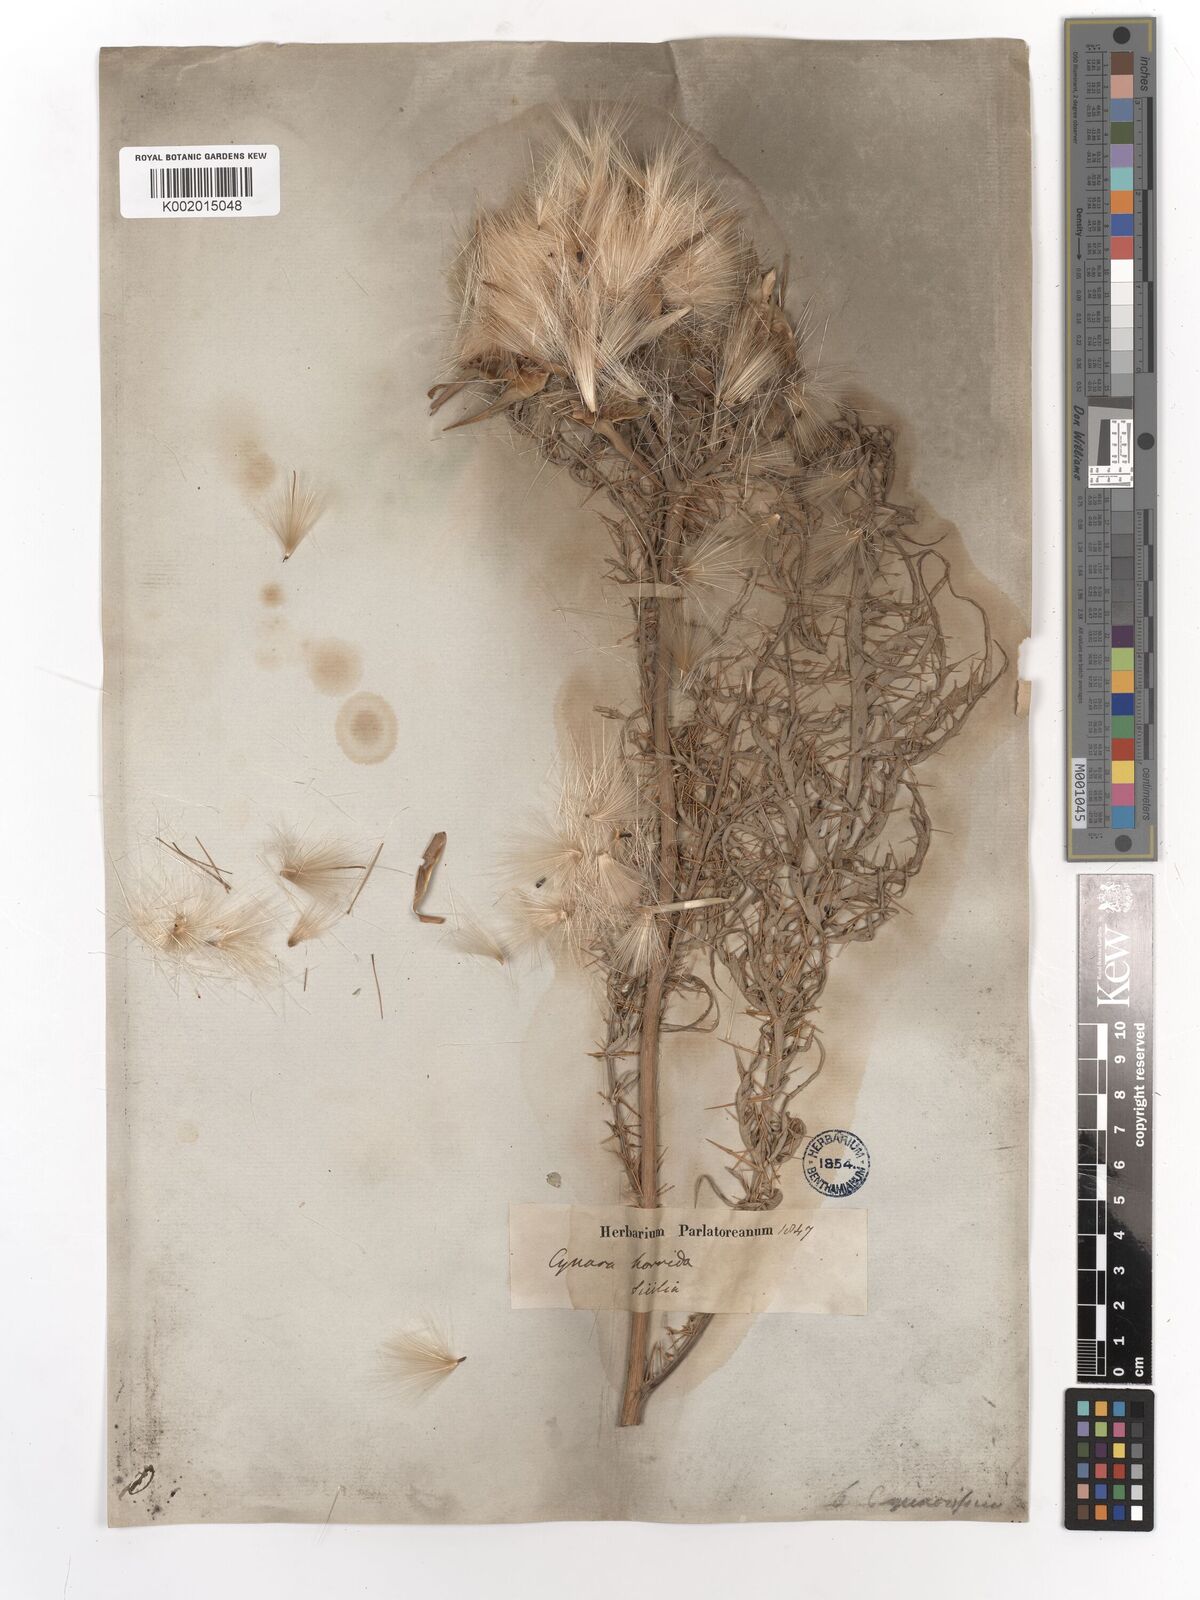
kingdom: Plantae
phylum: Tracheophyta
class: Magnoliopsida
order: Asterales
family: Asteraceae
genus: Cynara
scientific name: Cynara cardunculus
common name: Globe artichoke
